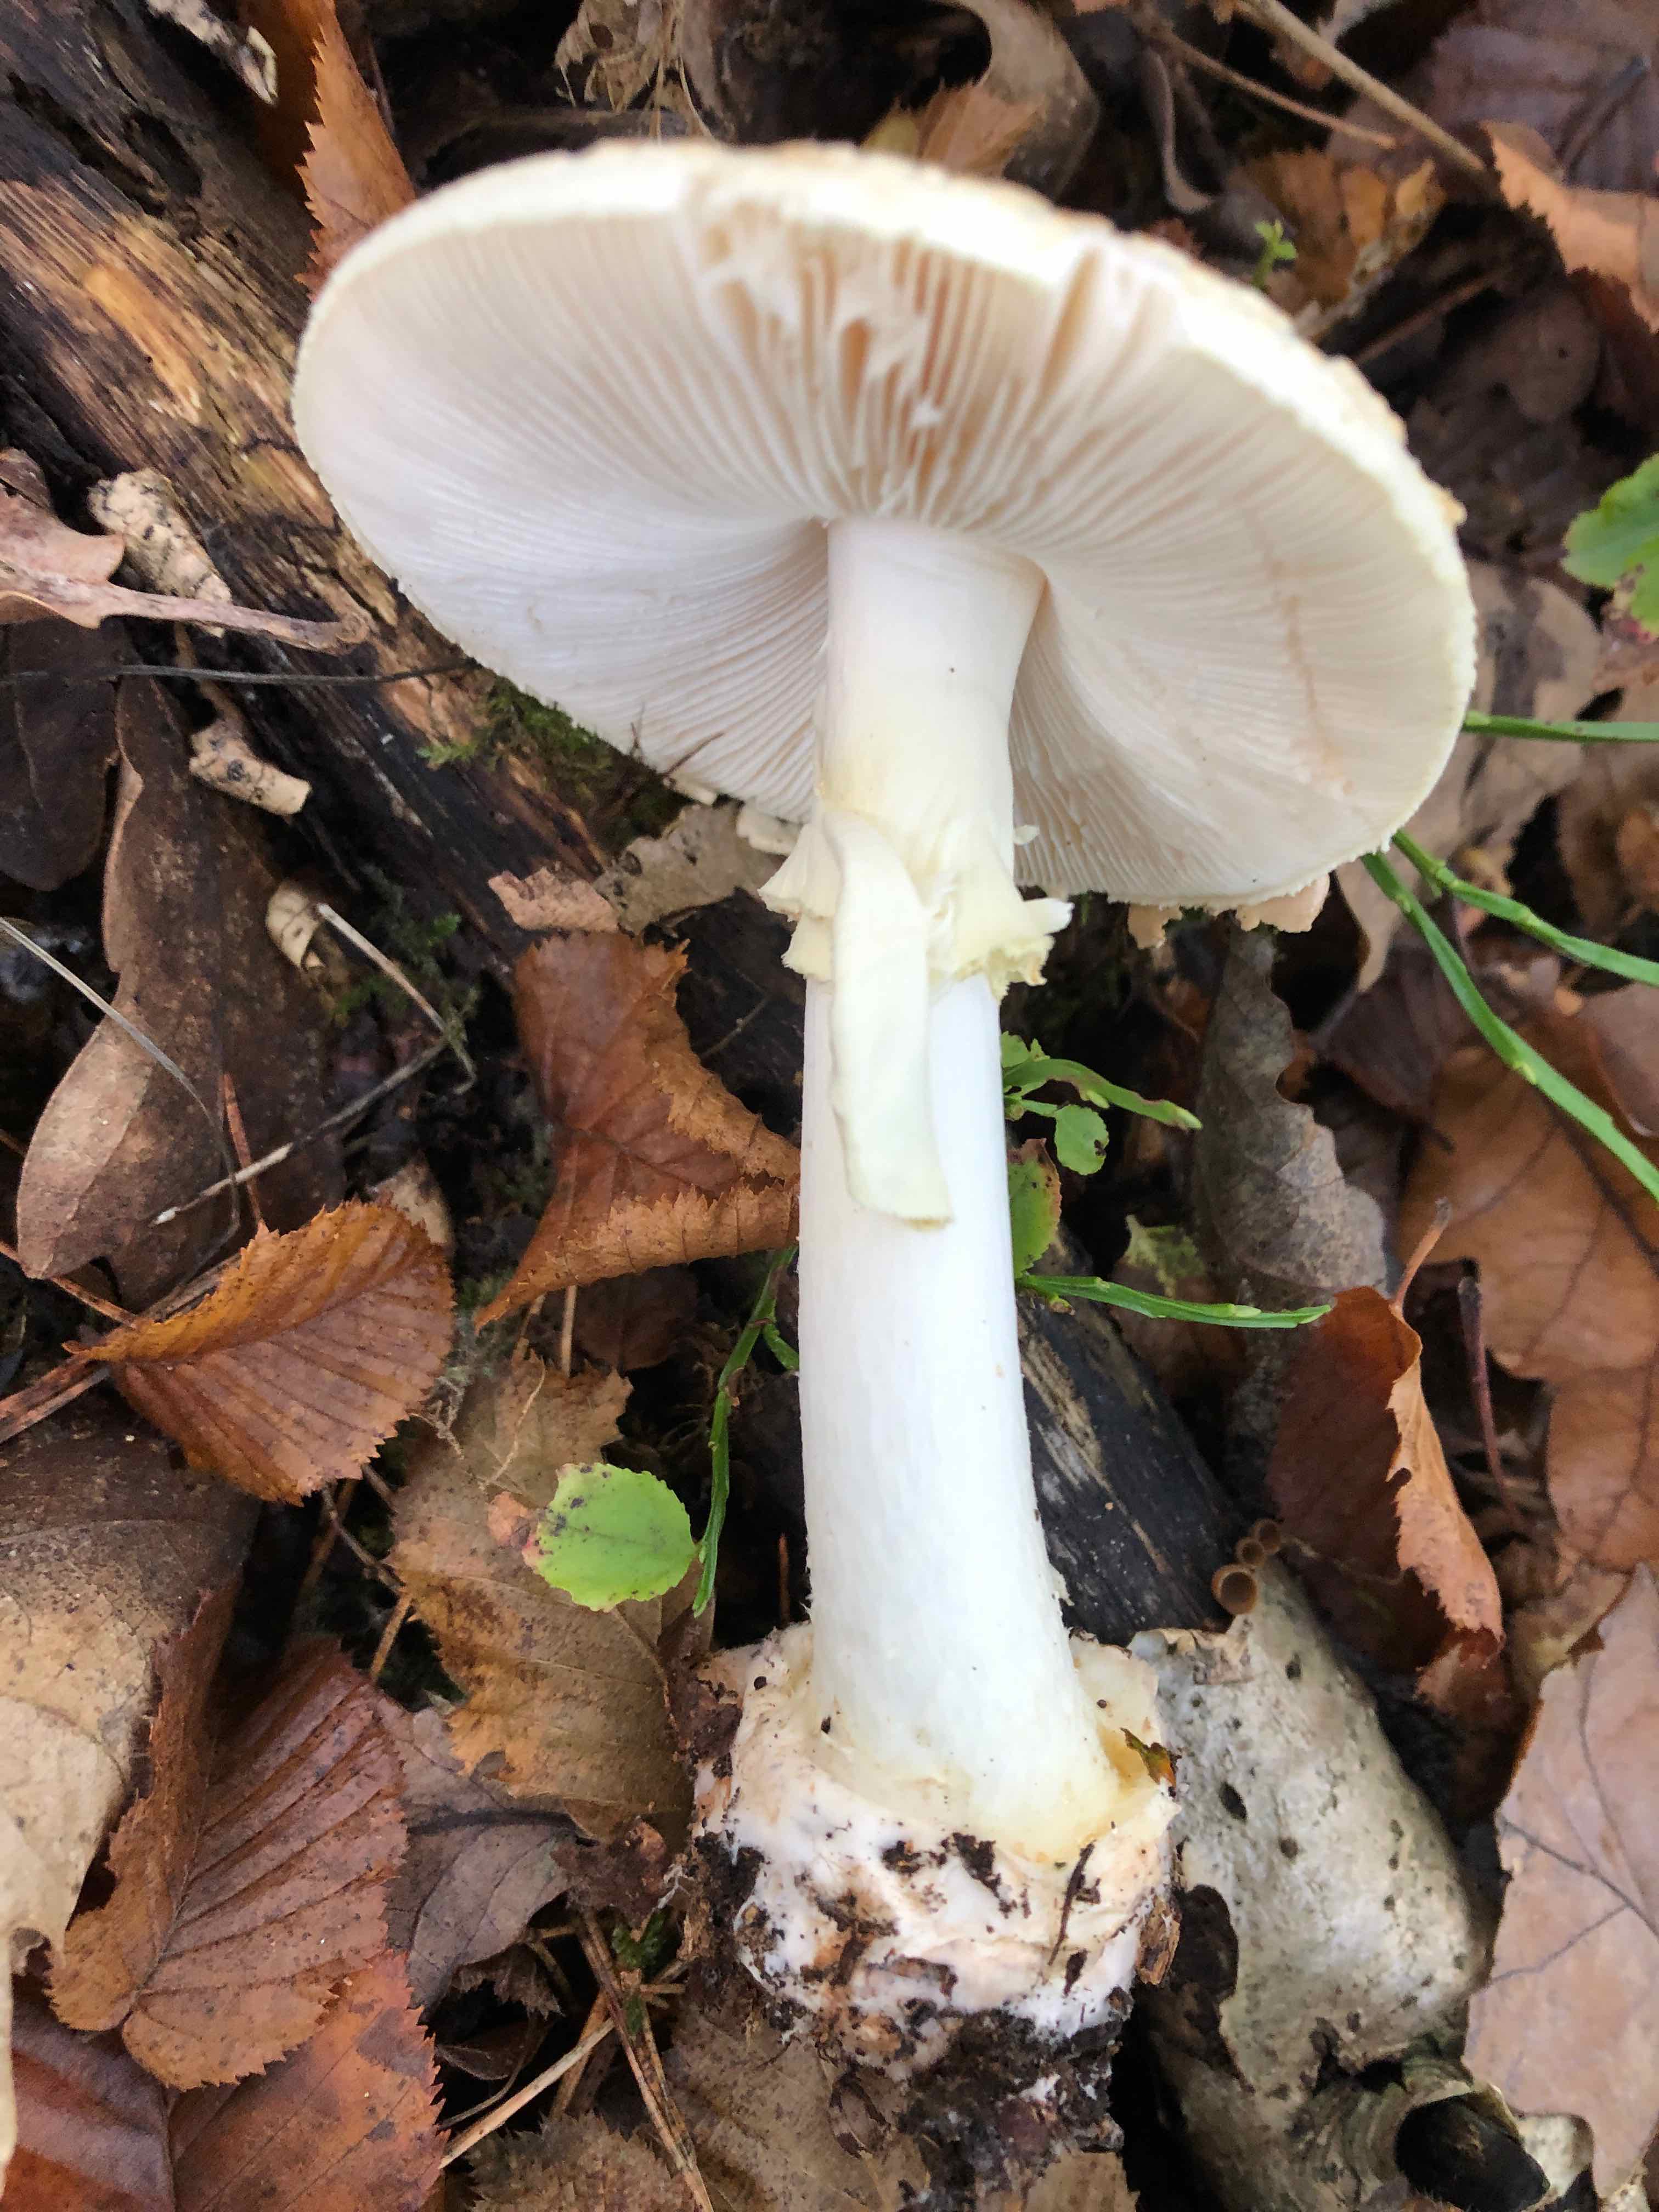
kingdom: Fungi
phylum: Basidiomycota
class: Agaricomycetes
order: Agaricales
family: Amanitaceae
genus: Amanita
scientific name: Amanita citrina
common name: kugleknoldet fluesvamp
